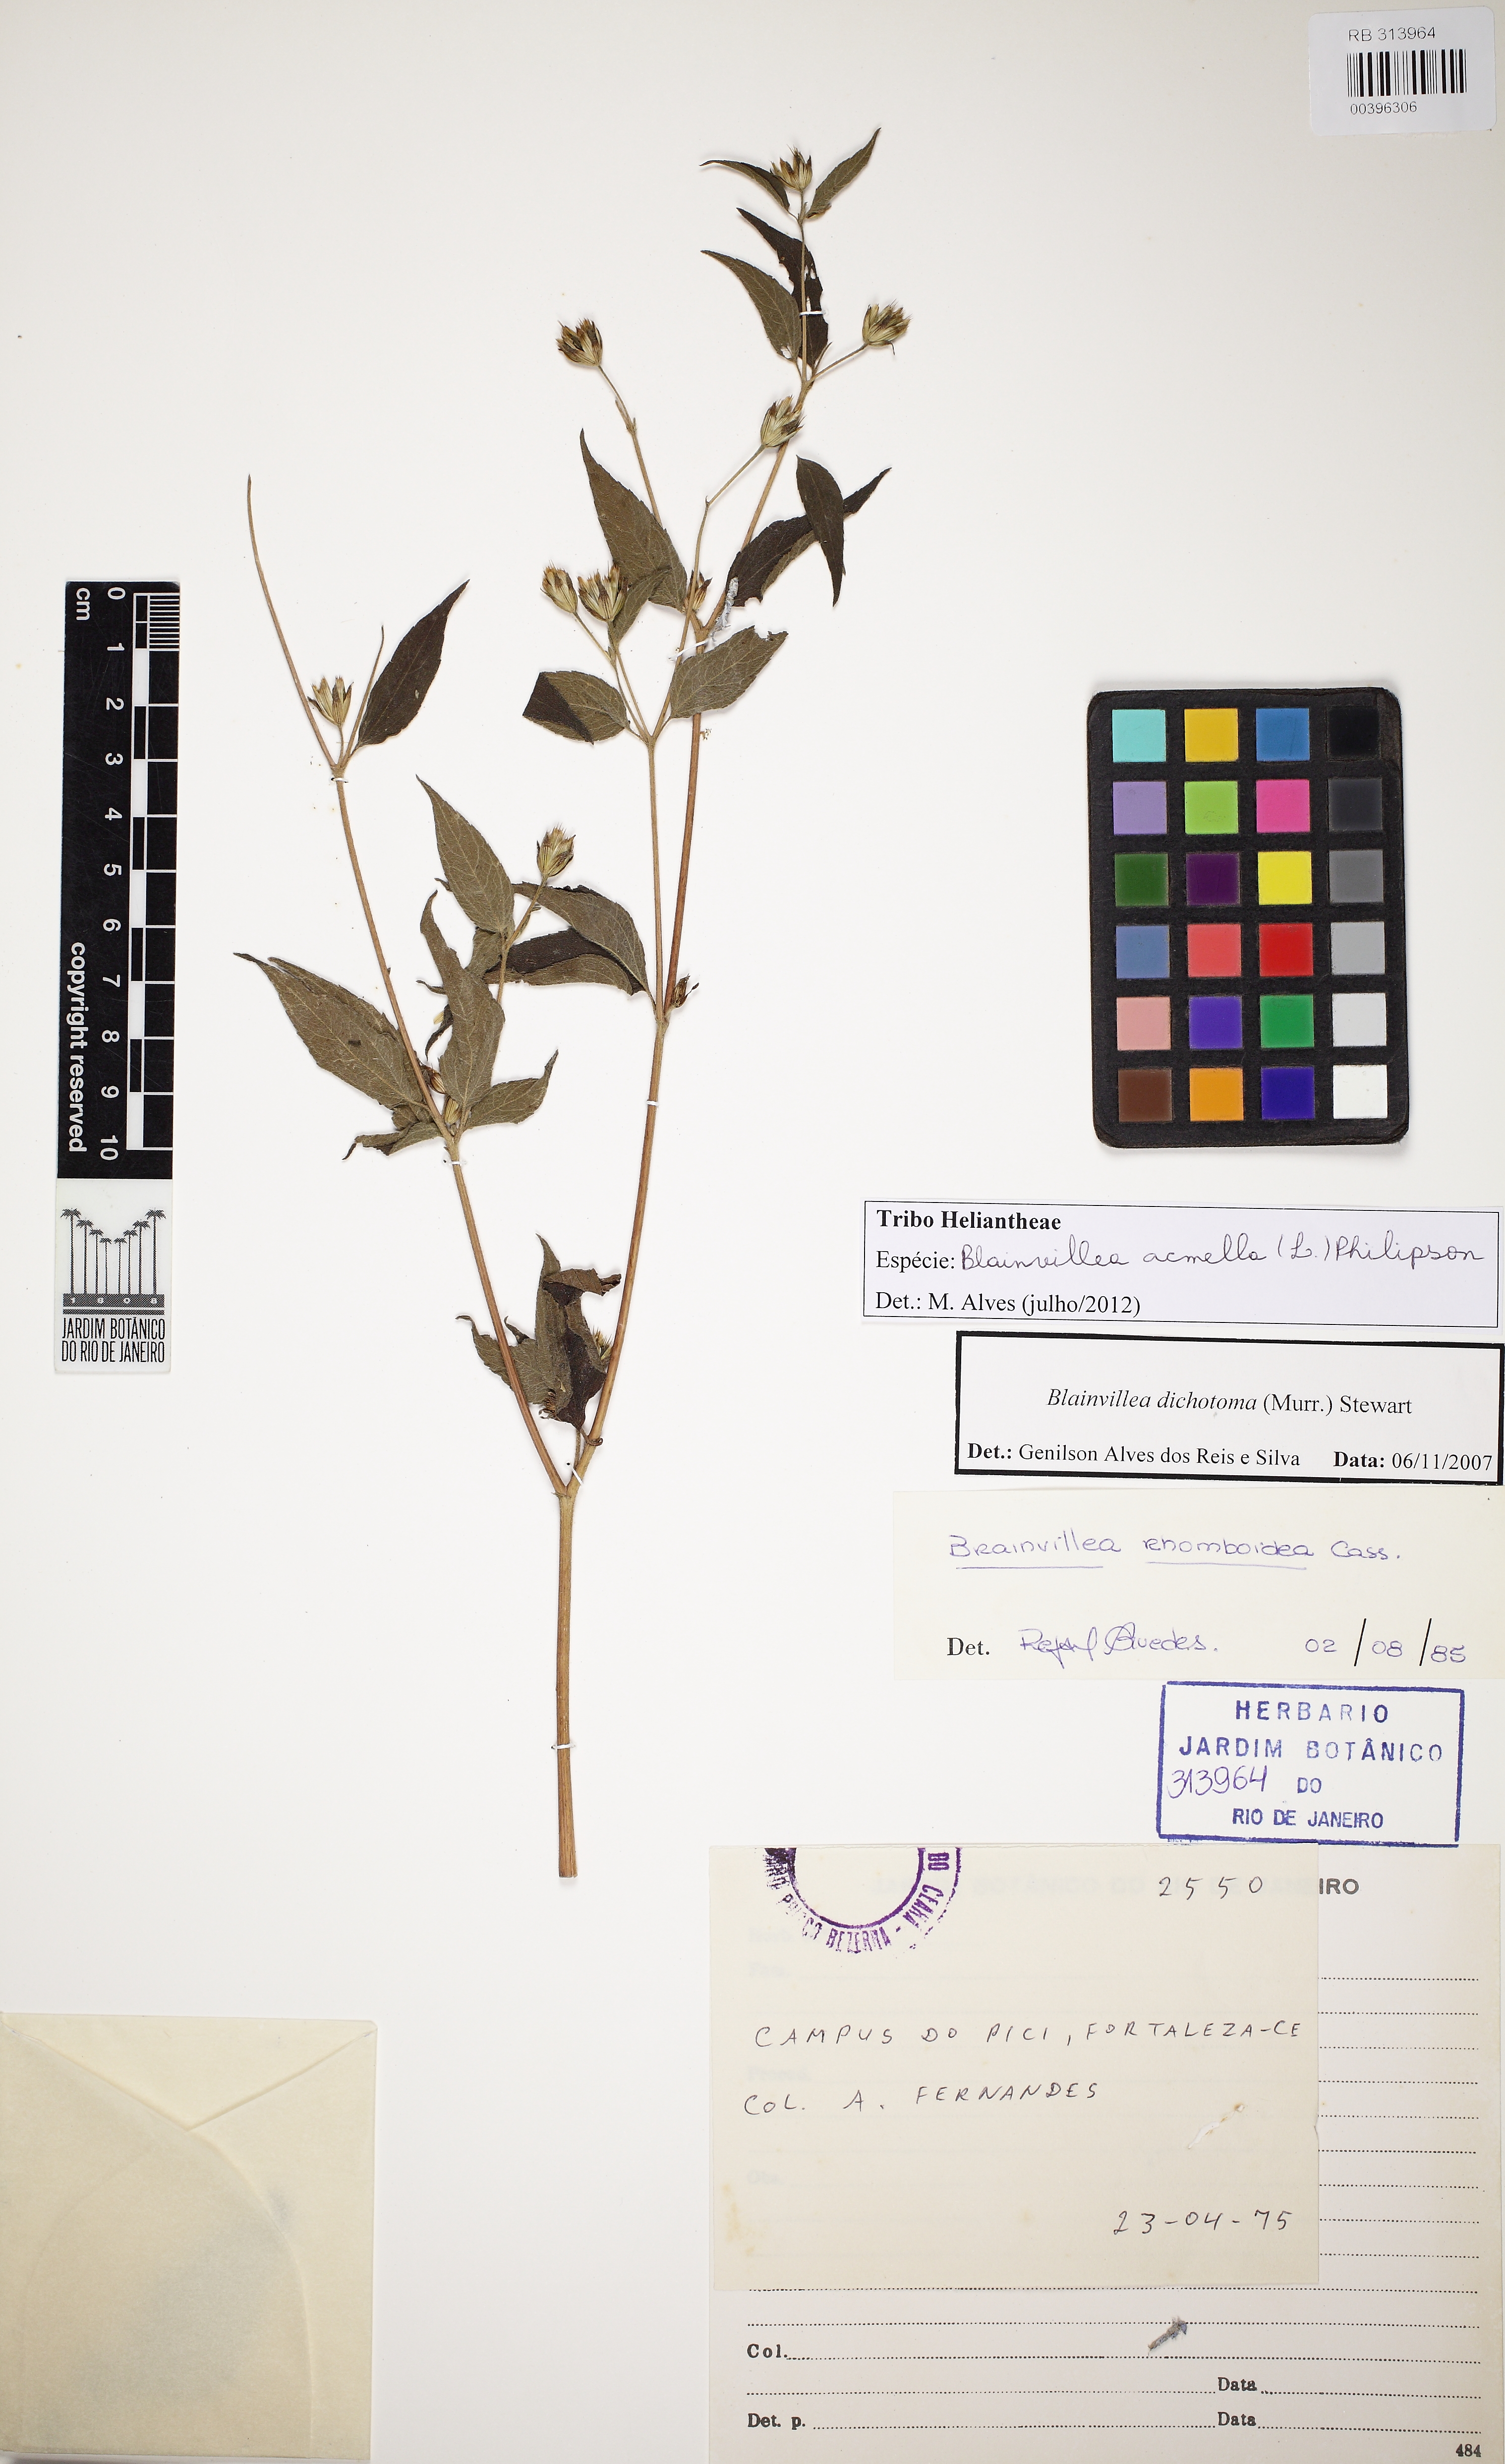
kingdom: Plantae
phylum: Tracheophyta
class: Magnoliopsida
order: Asterales
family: Asteraceae
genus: Blainvillea
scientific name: Blainvillea acmella
